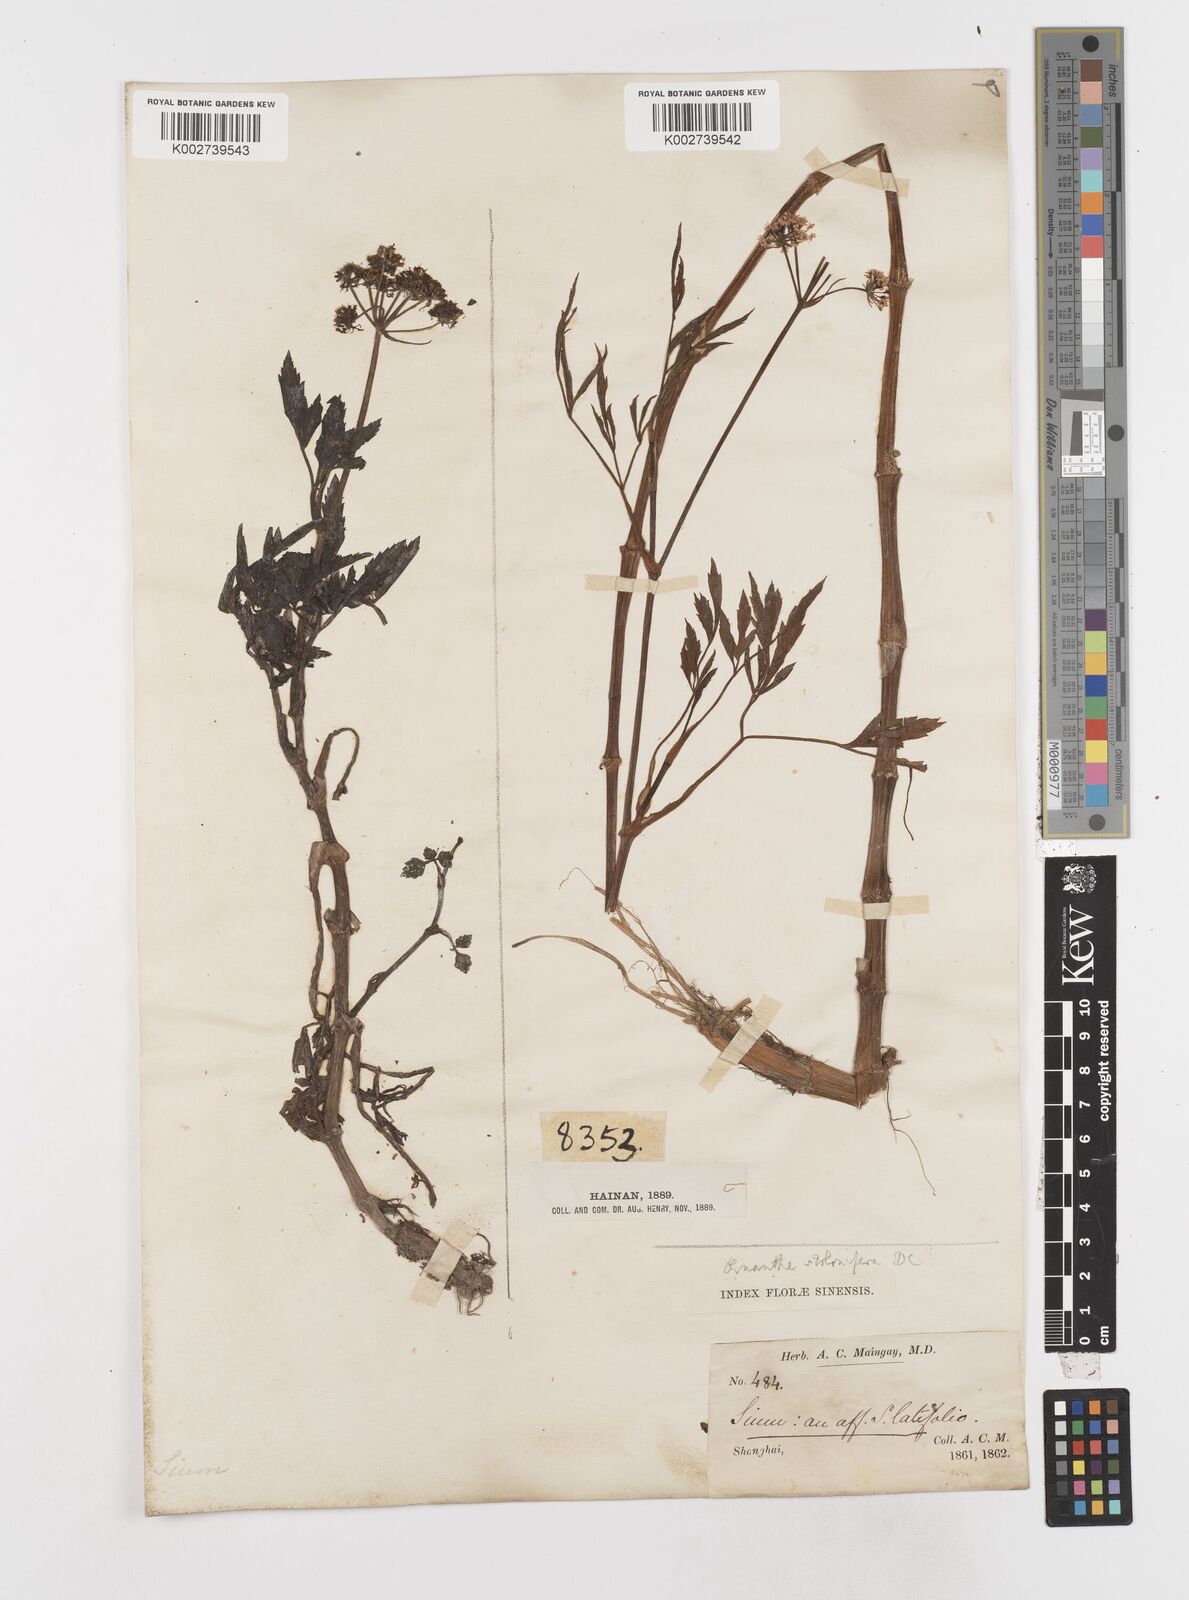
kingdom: Plantae
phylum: Tracheophyta
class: Magnoliopsida
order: Apiales
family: Apiaceae
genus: Oenanthe
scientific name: Oenanthe javanica
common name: Java water-dropwort
